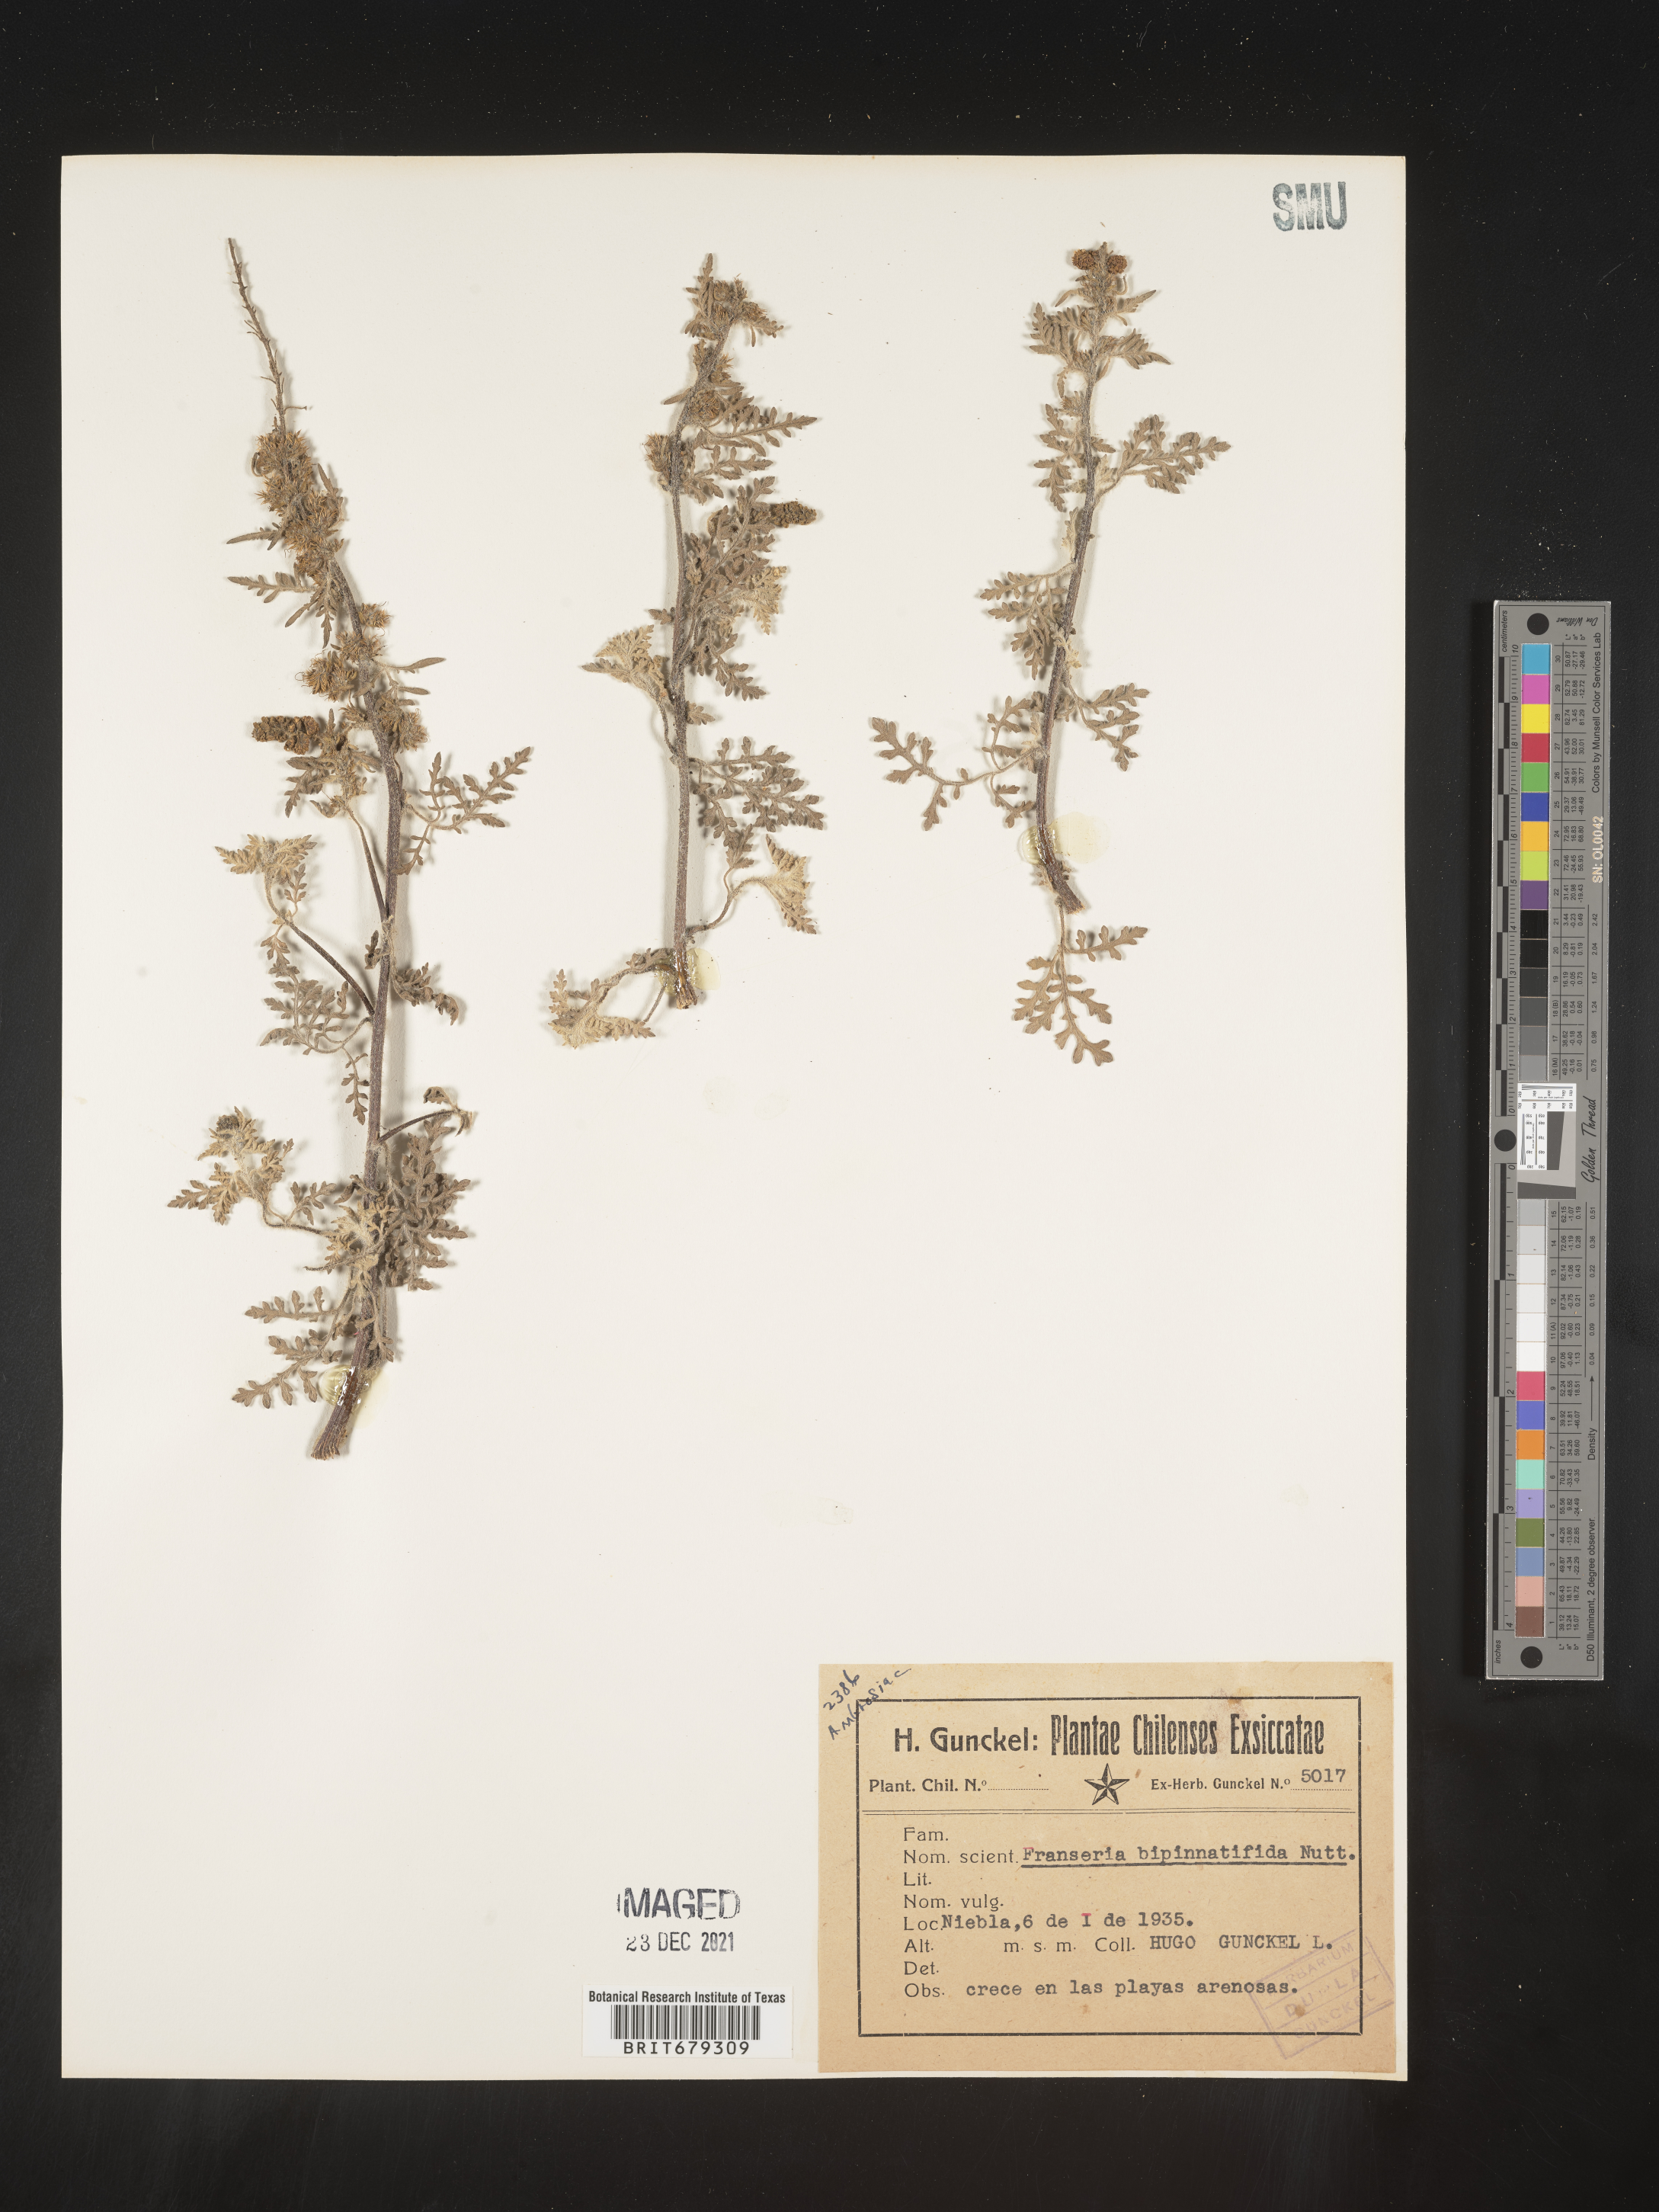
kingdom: Plantae
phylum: Tracheophyta
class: Magnoliopsida
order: Asterales
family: Asteraceae
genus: Ambrosia
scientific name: Ambrosia
